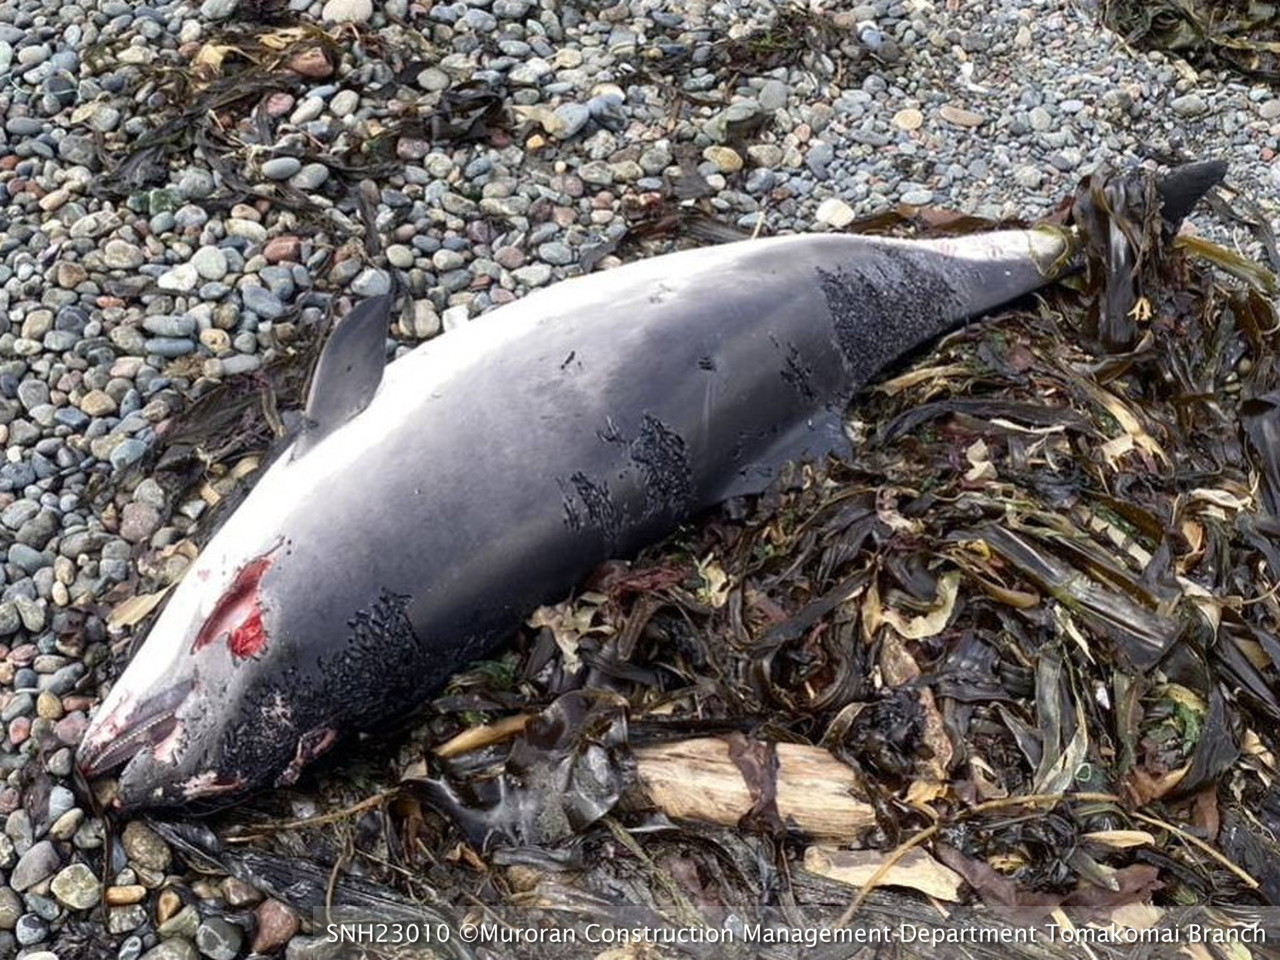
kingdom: Animalia
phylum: Chordata
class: Mammalia
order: Cetacea
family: Phocoenidae
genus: Phocoena
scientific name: Phocoena phocoena
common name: Harbour porpoise
